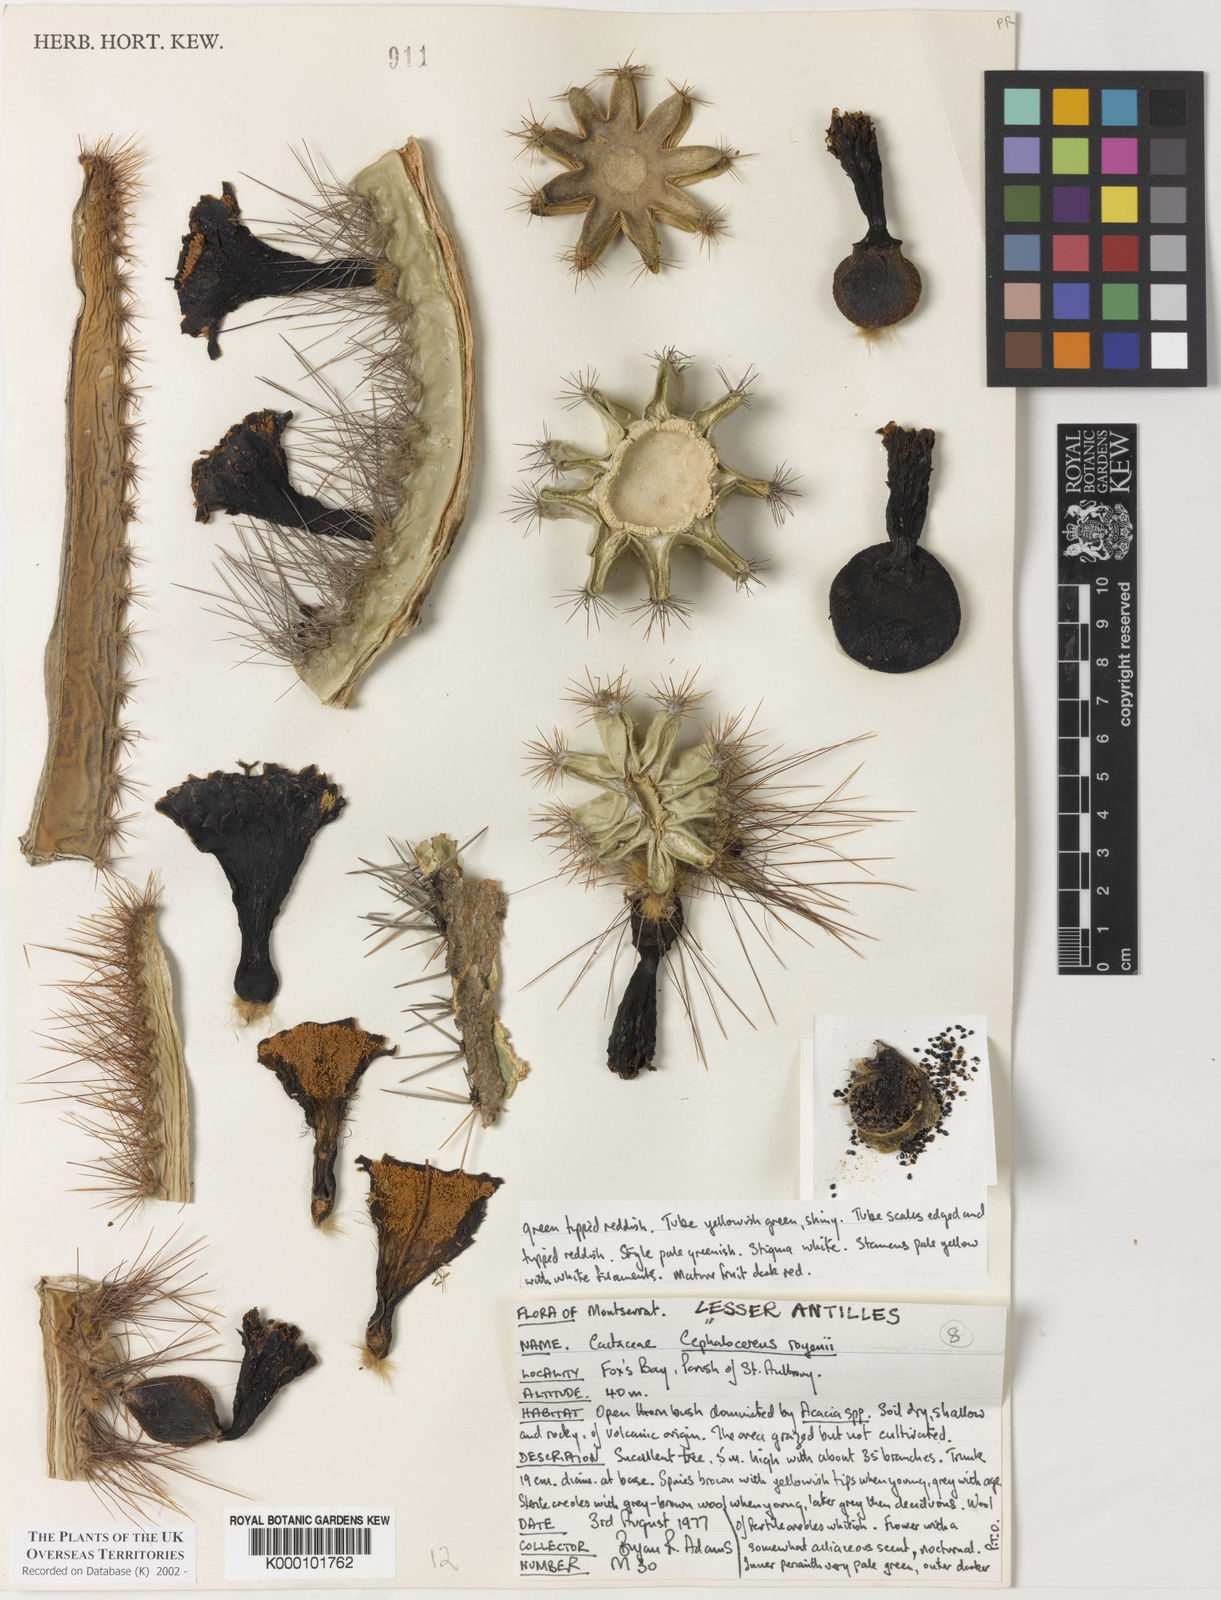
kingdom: Plantae
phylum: Tracheophyta
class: Magnoliopsida
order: Caryophyllales
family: Cactaceae
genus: Pilosocereus
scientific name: Pilosocereus polygonus
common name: Key tree cactus
